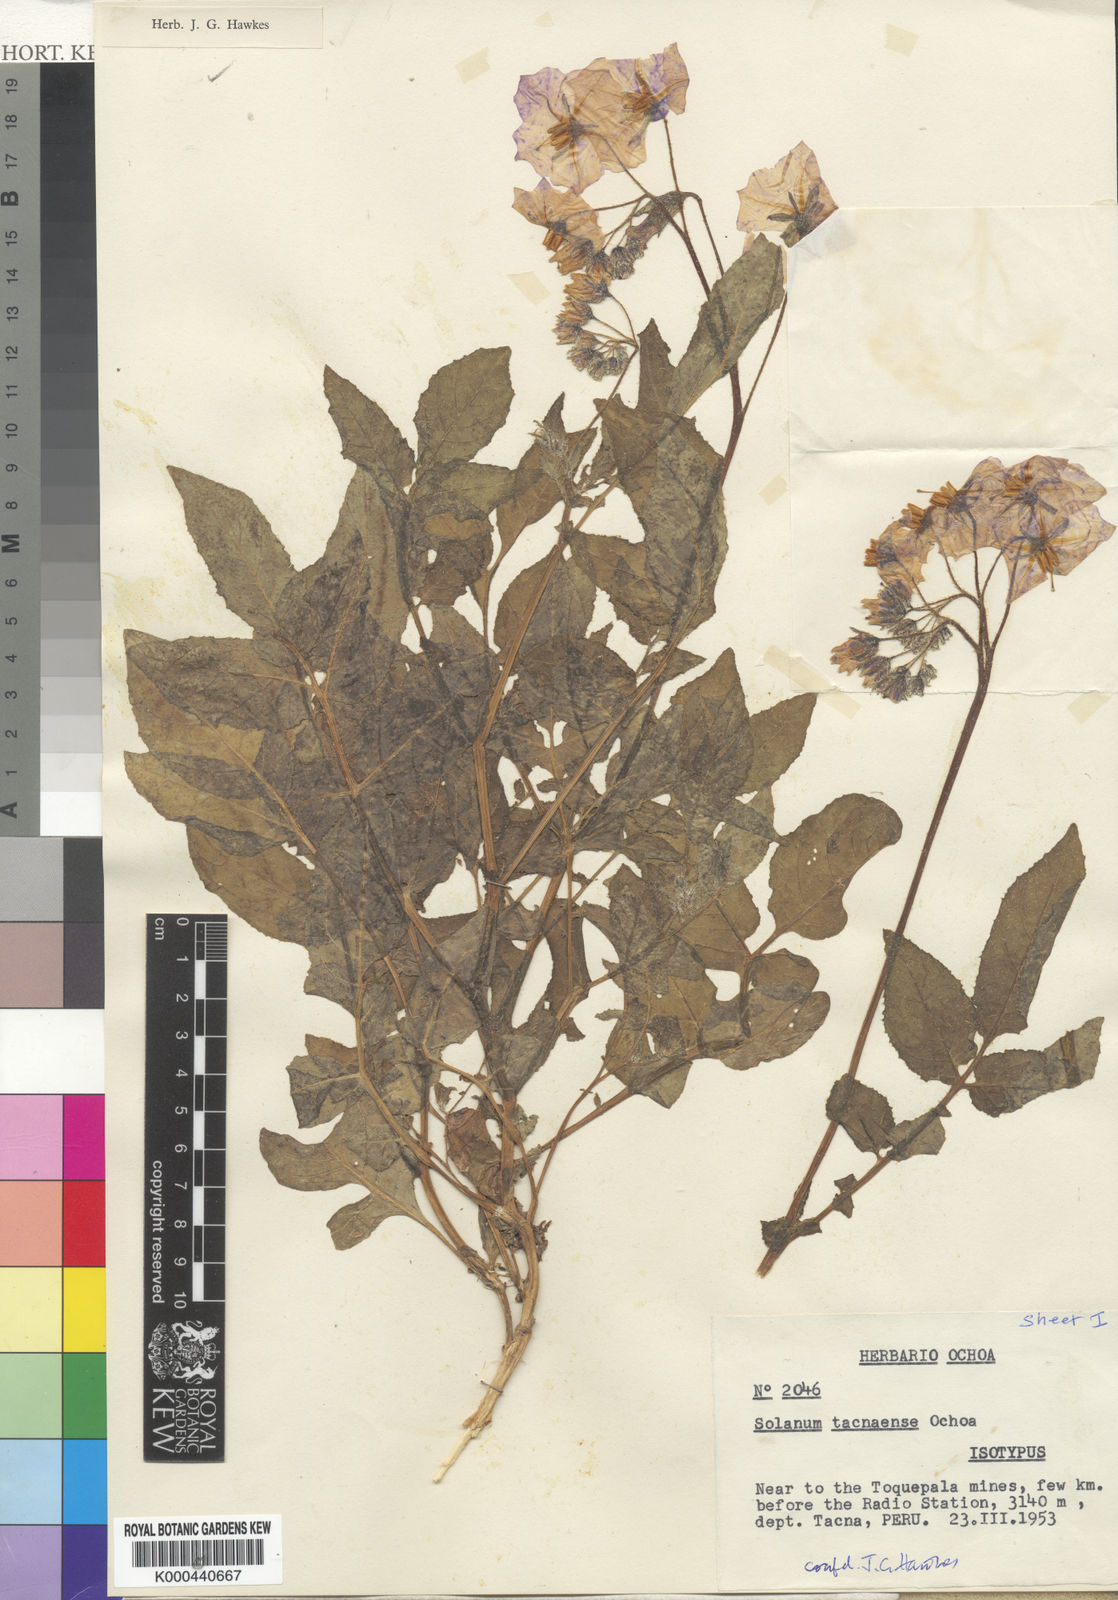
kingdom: Plantae
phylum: Tracheophyta
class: Magnoliopsida
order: Solanales
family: Solanaceae
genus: Solanum
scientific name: Solanum medians
